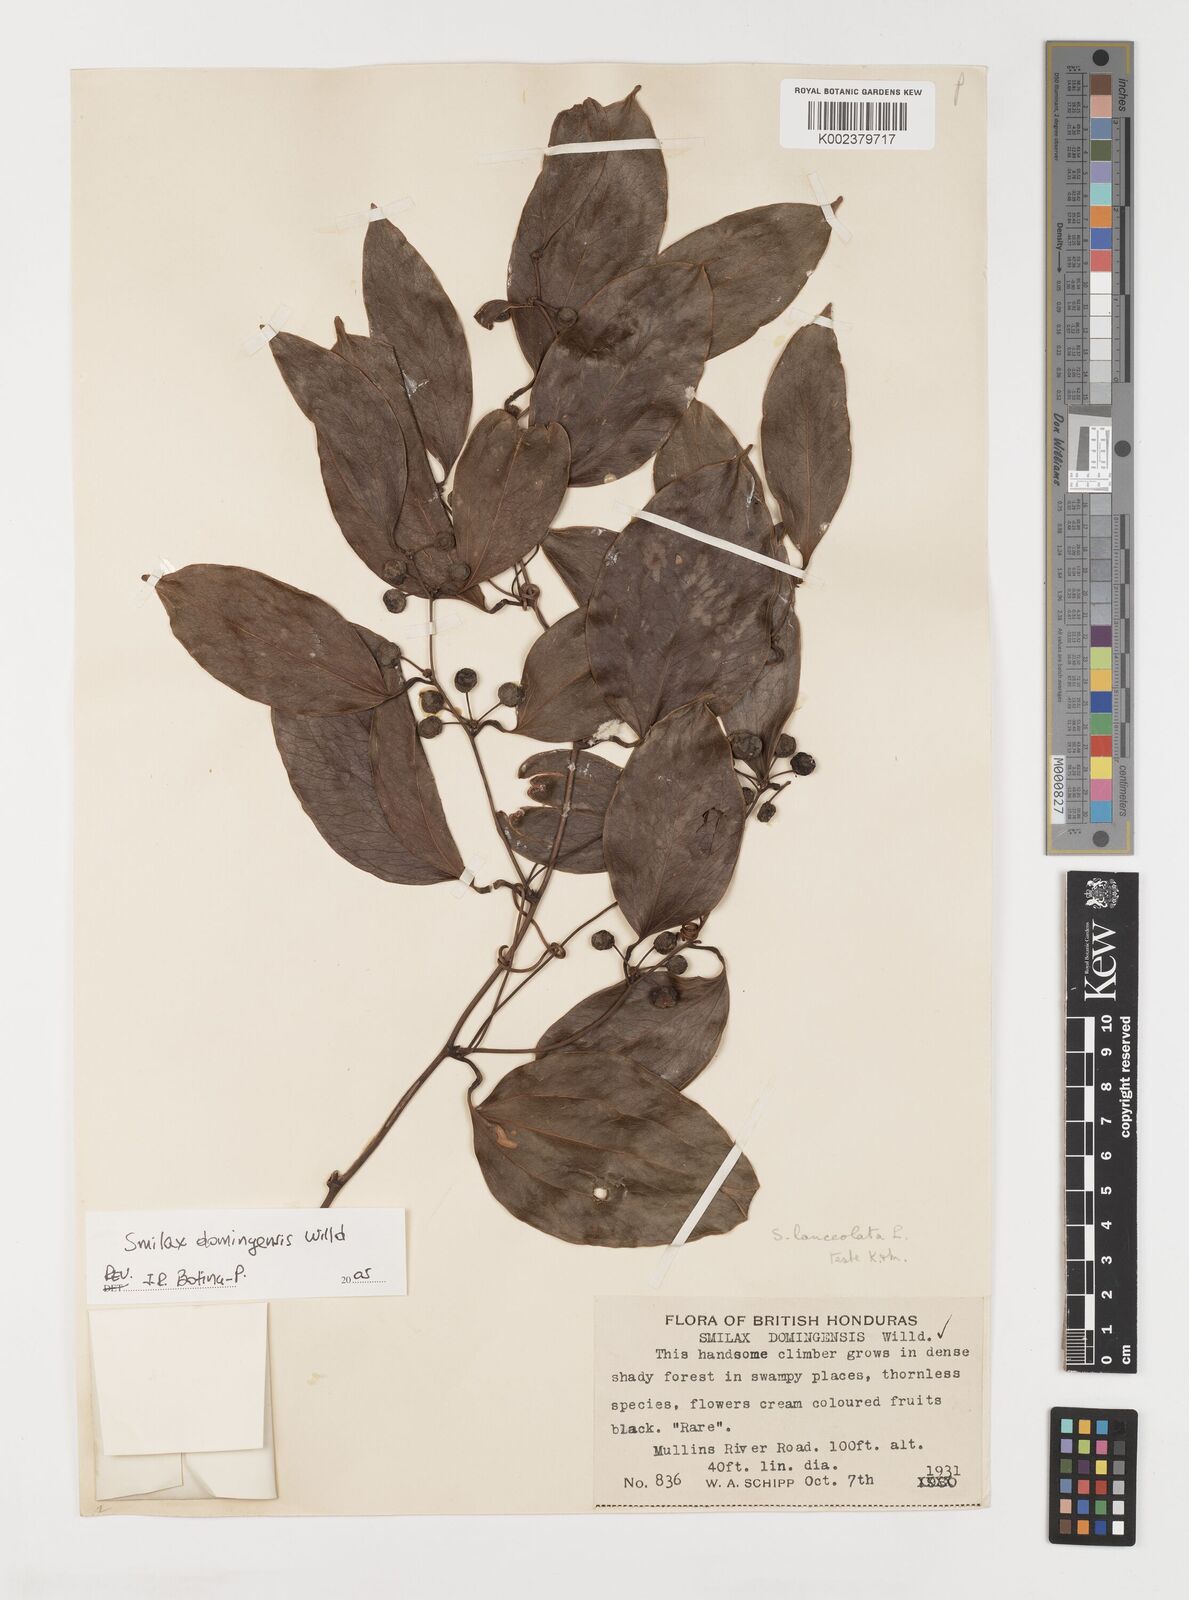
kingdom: Plantae
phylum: Tracheophyta
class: Liliopsida
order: Liliales
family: Smilacaceae
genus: Smilax
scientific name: Smilax laurifolia
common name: Bamboovine
